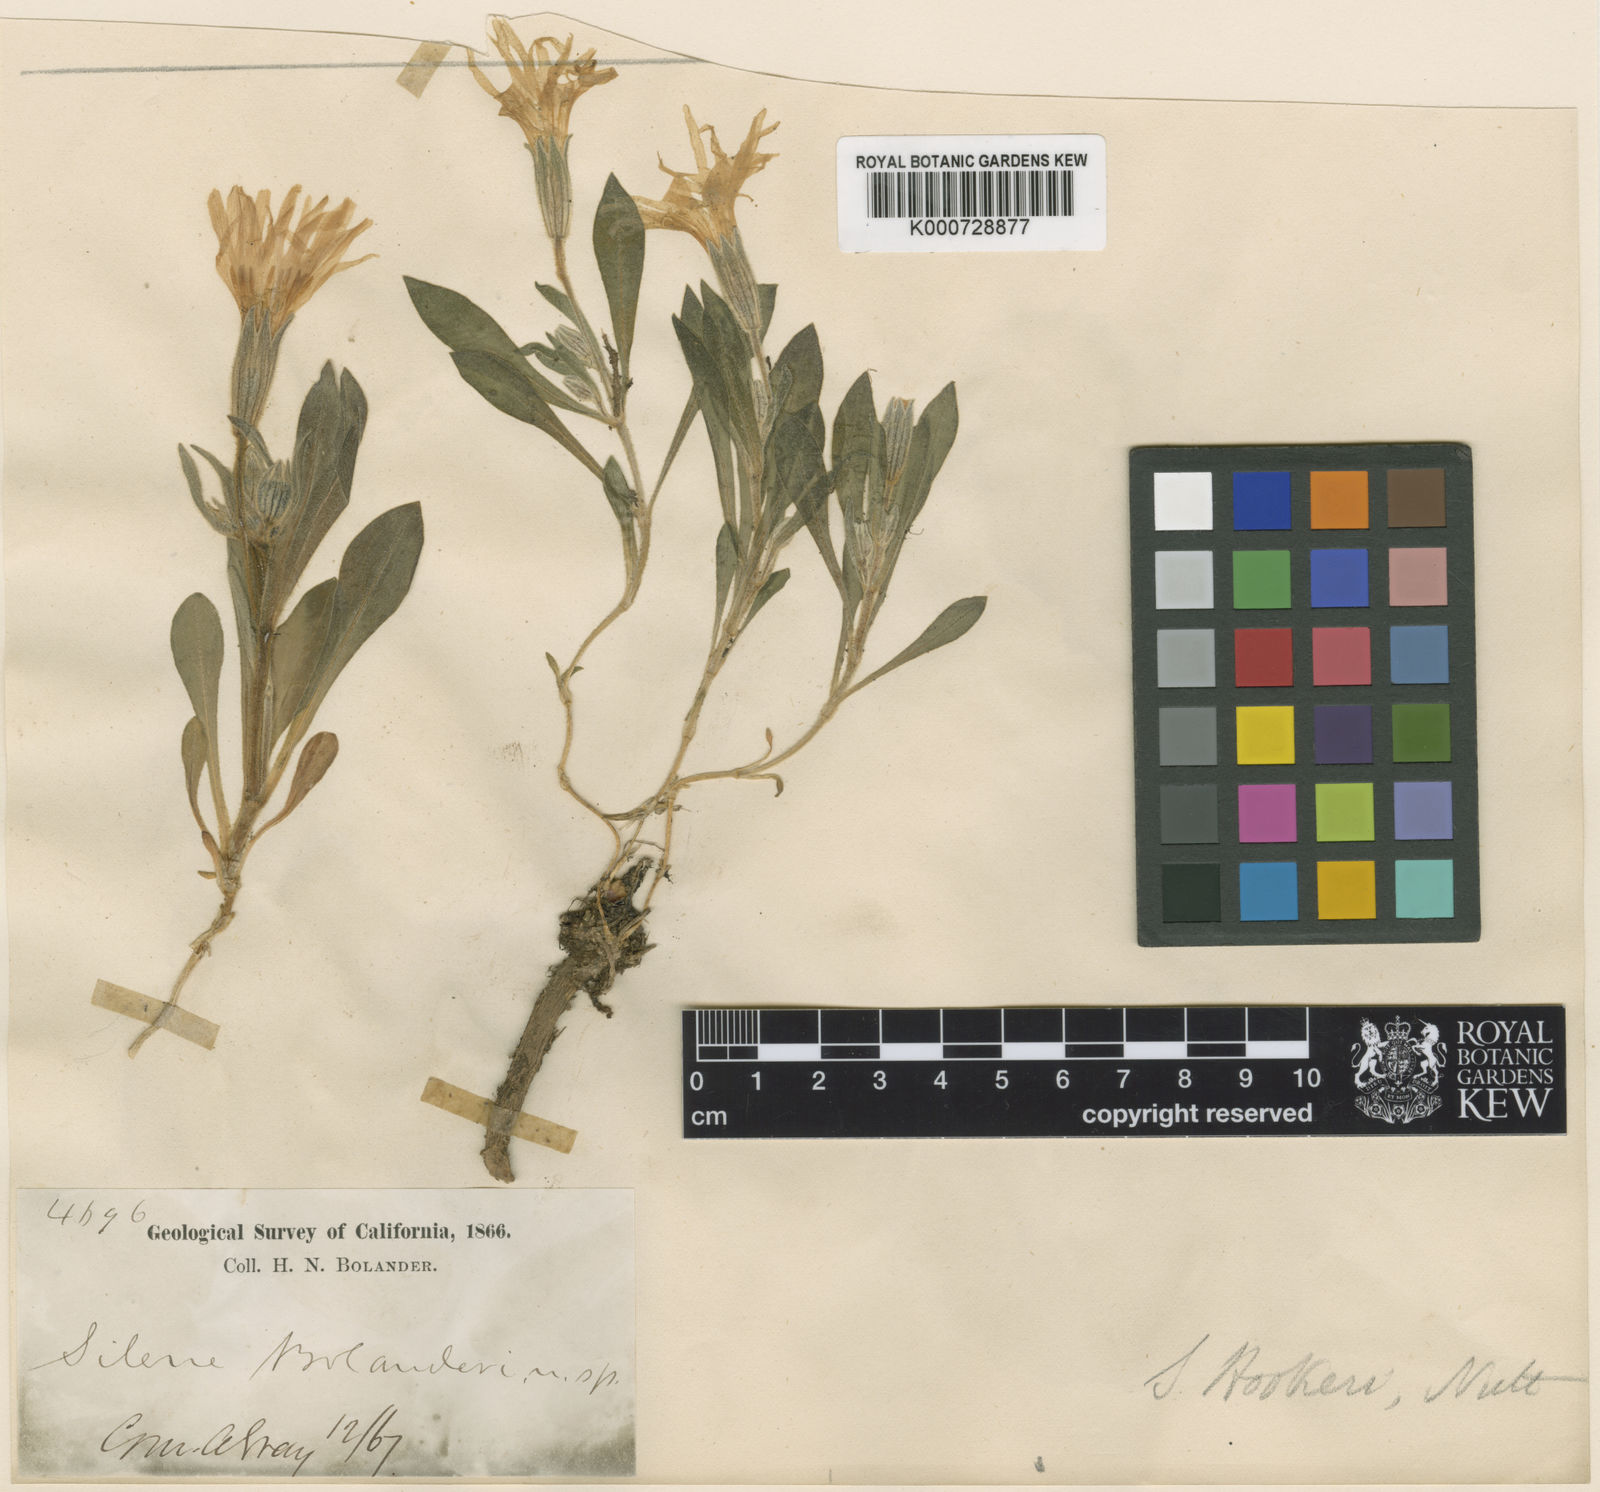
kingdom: Plantae
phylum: Tracheophyta
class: Magnoliopsida
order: Caryophyllales
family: Caryophyllaceae
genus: Silene
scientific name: Silene bolanderi
